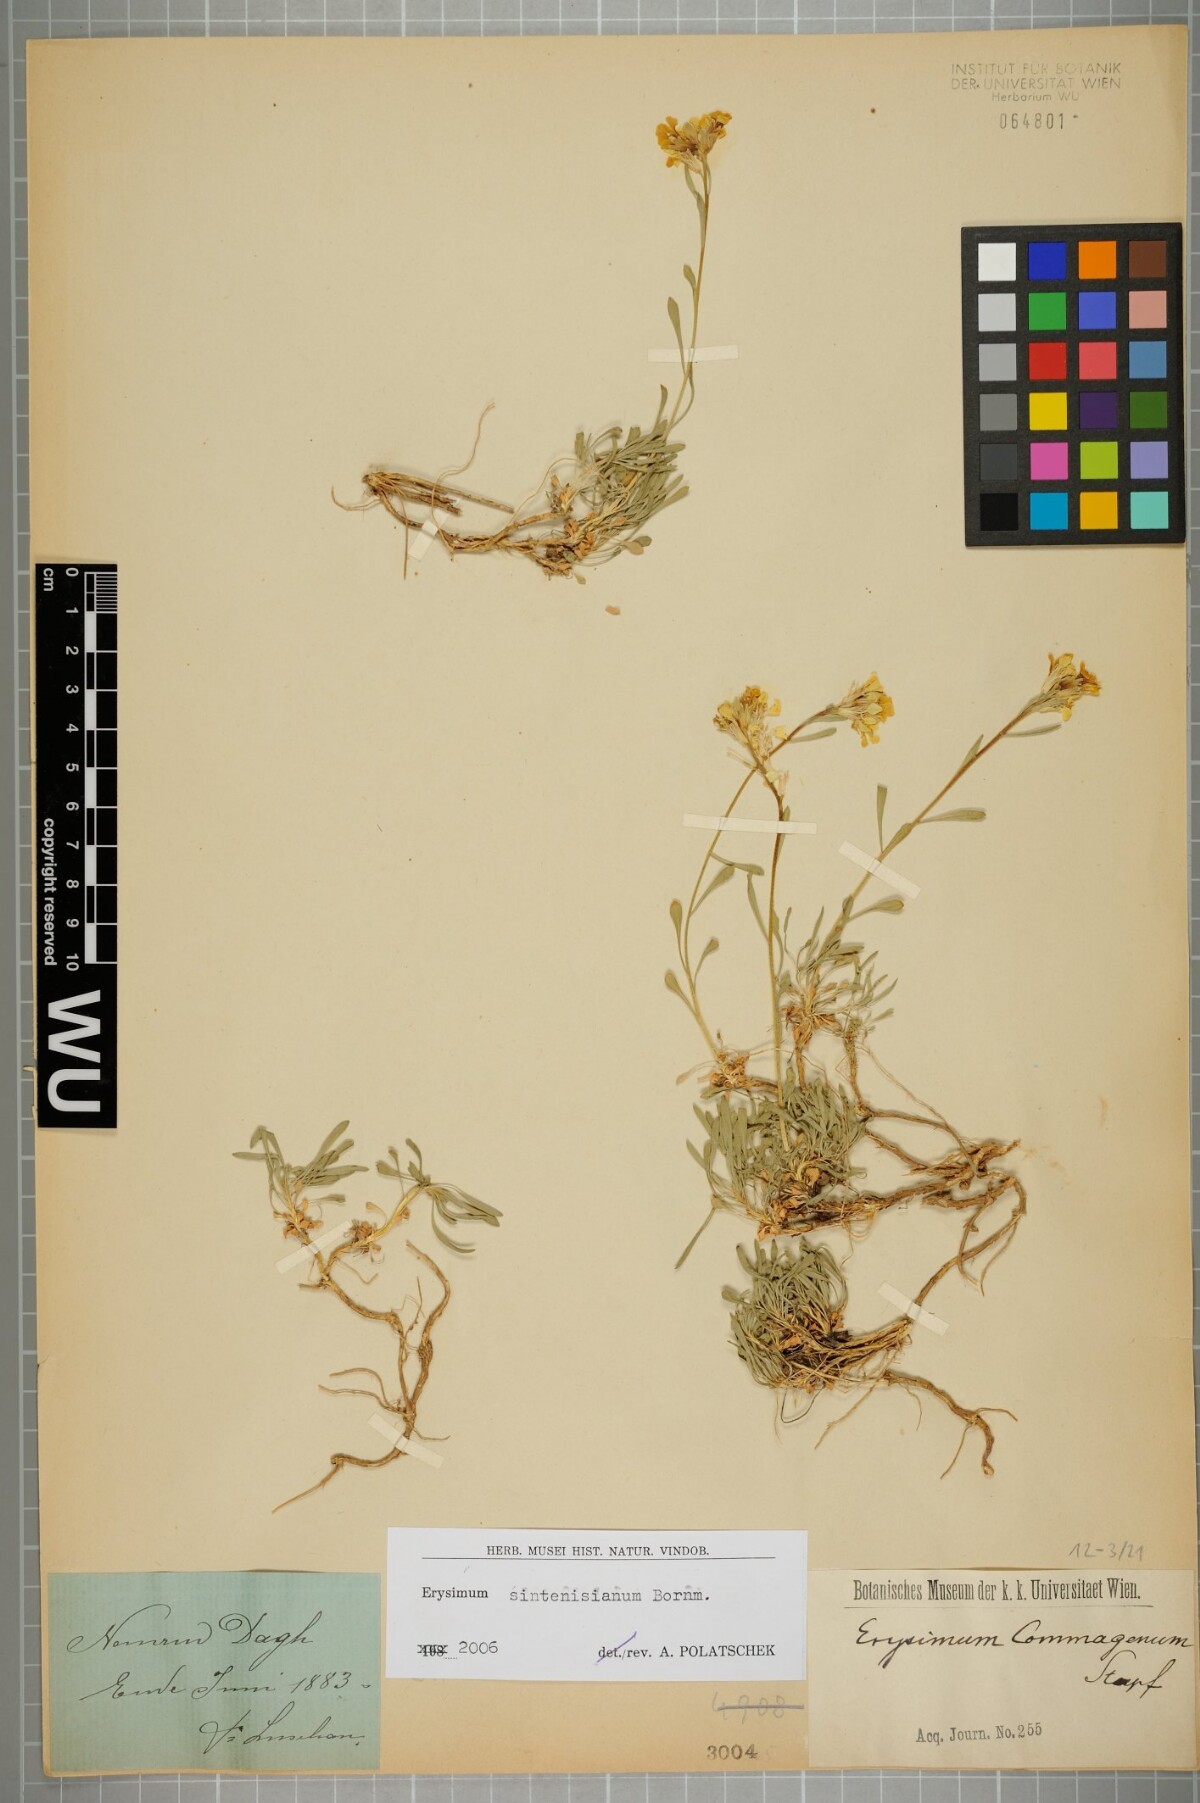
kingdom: Plantae
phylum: Tracheophyta
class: Magnoliopsida
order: Brassicales
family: Brassicaceae
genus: Erysimum
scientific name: Erysimum sintenisianum
